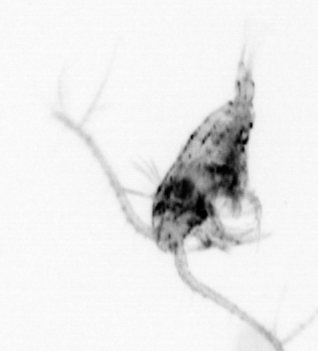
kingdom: Animalia
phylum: Arthropoda
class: Copepoda
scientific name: Copepoda
